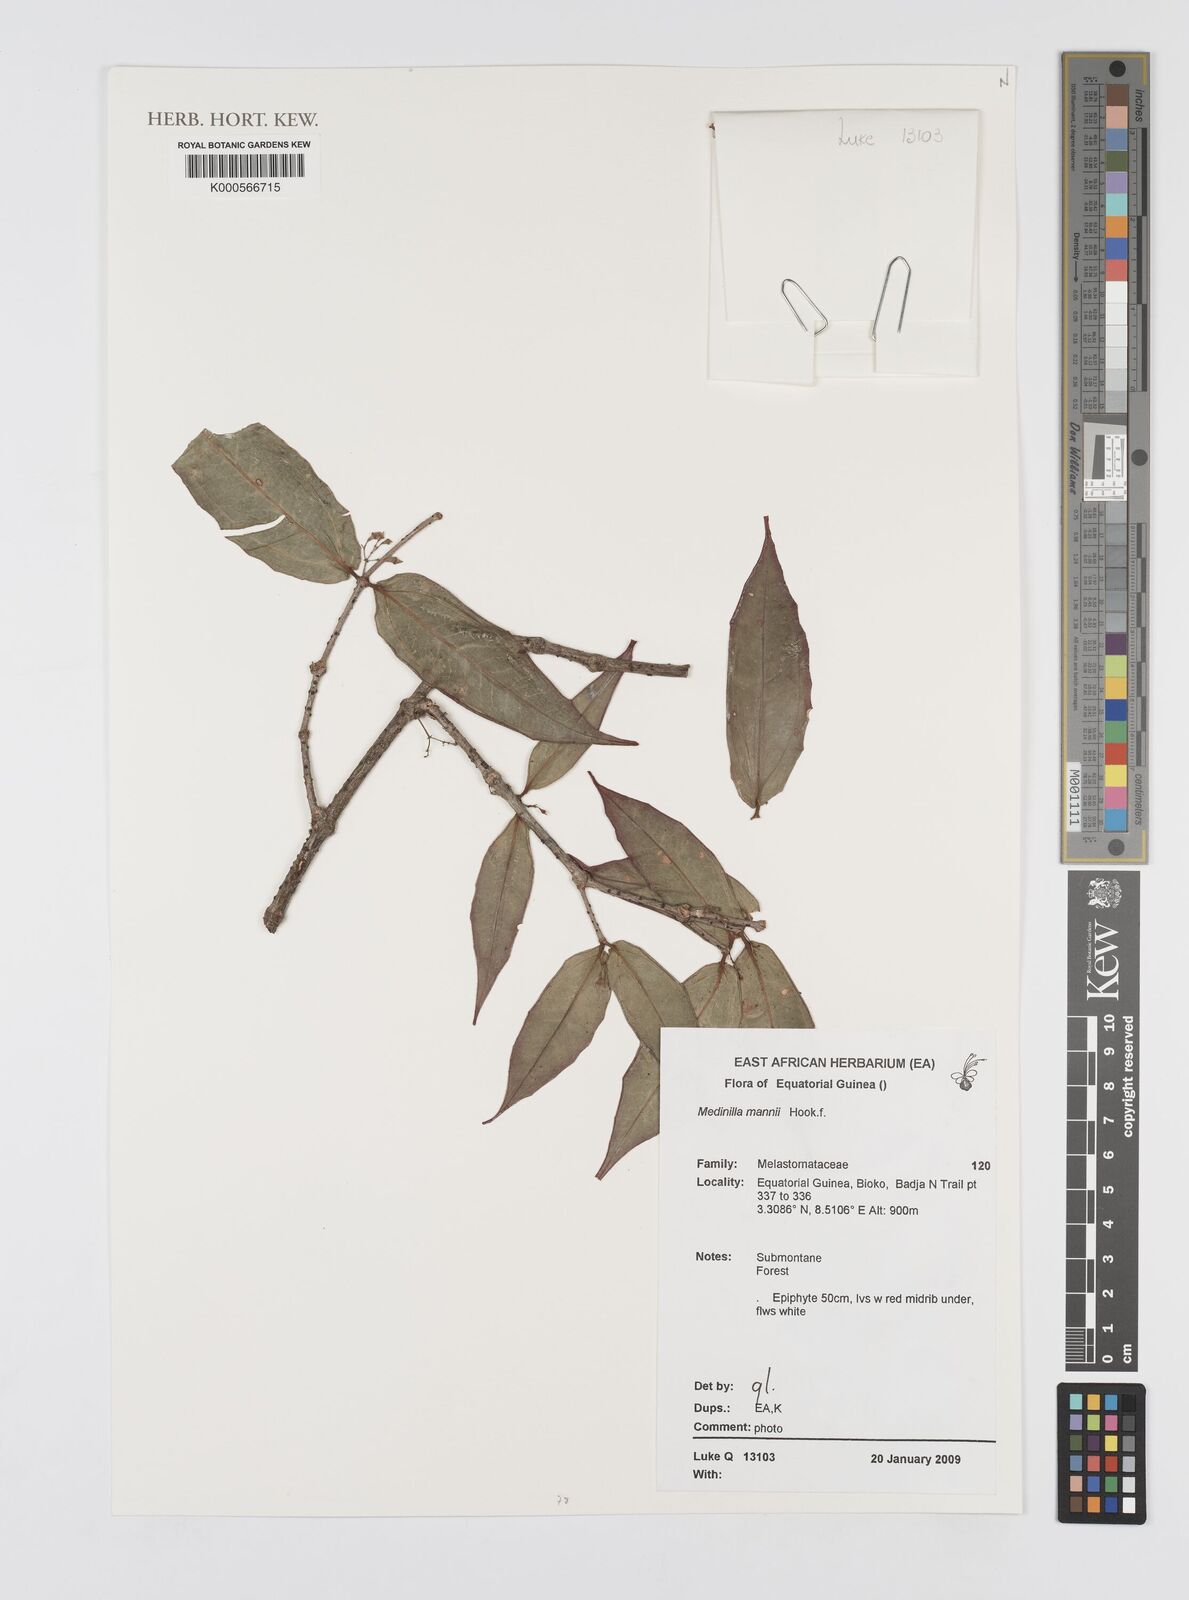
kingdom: Plantae
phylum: Tracheophyta
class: Magnoliopsida
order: Myrtales
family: Melastomataceae
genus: Medinilla
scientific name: Medinilla mannii
